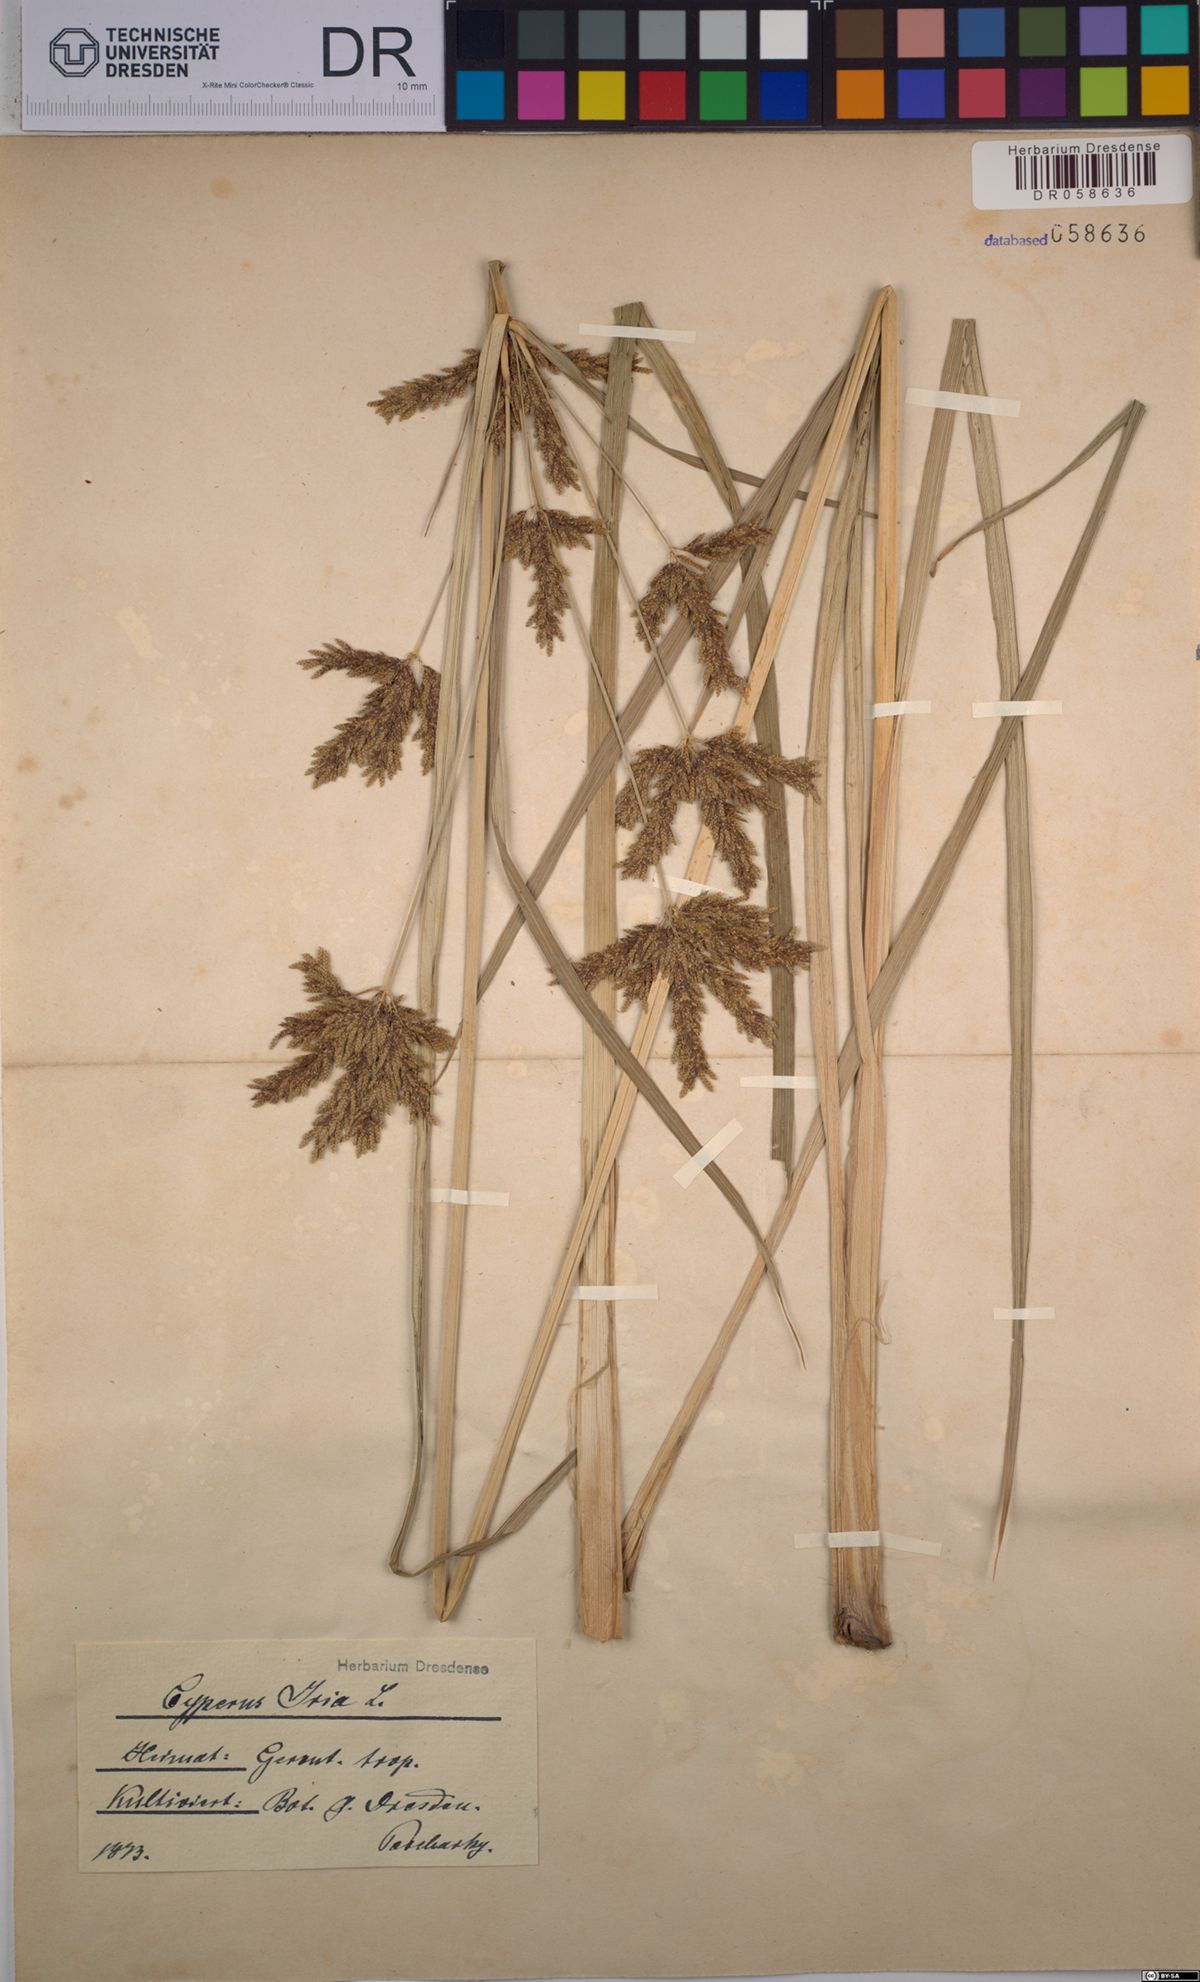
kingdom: Plantae
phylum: Tracheophyta
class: Liliopsida
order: Poales
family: Cyperaceae
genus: Cyperus
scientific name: Cyperus iria
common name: Ricefield flatsedge
